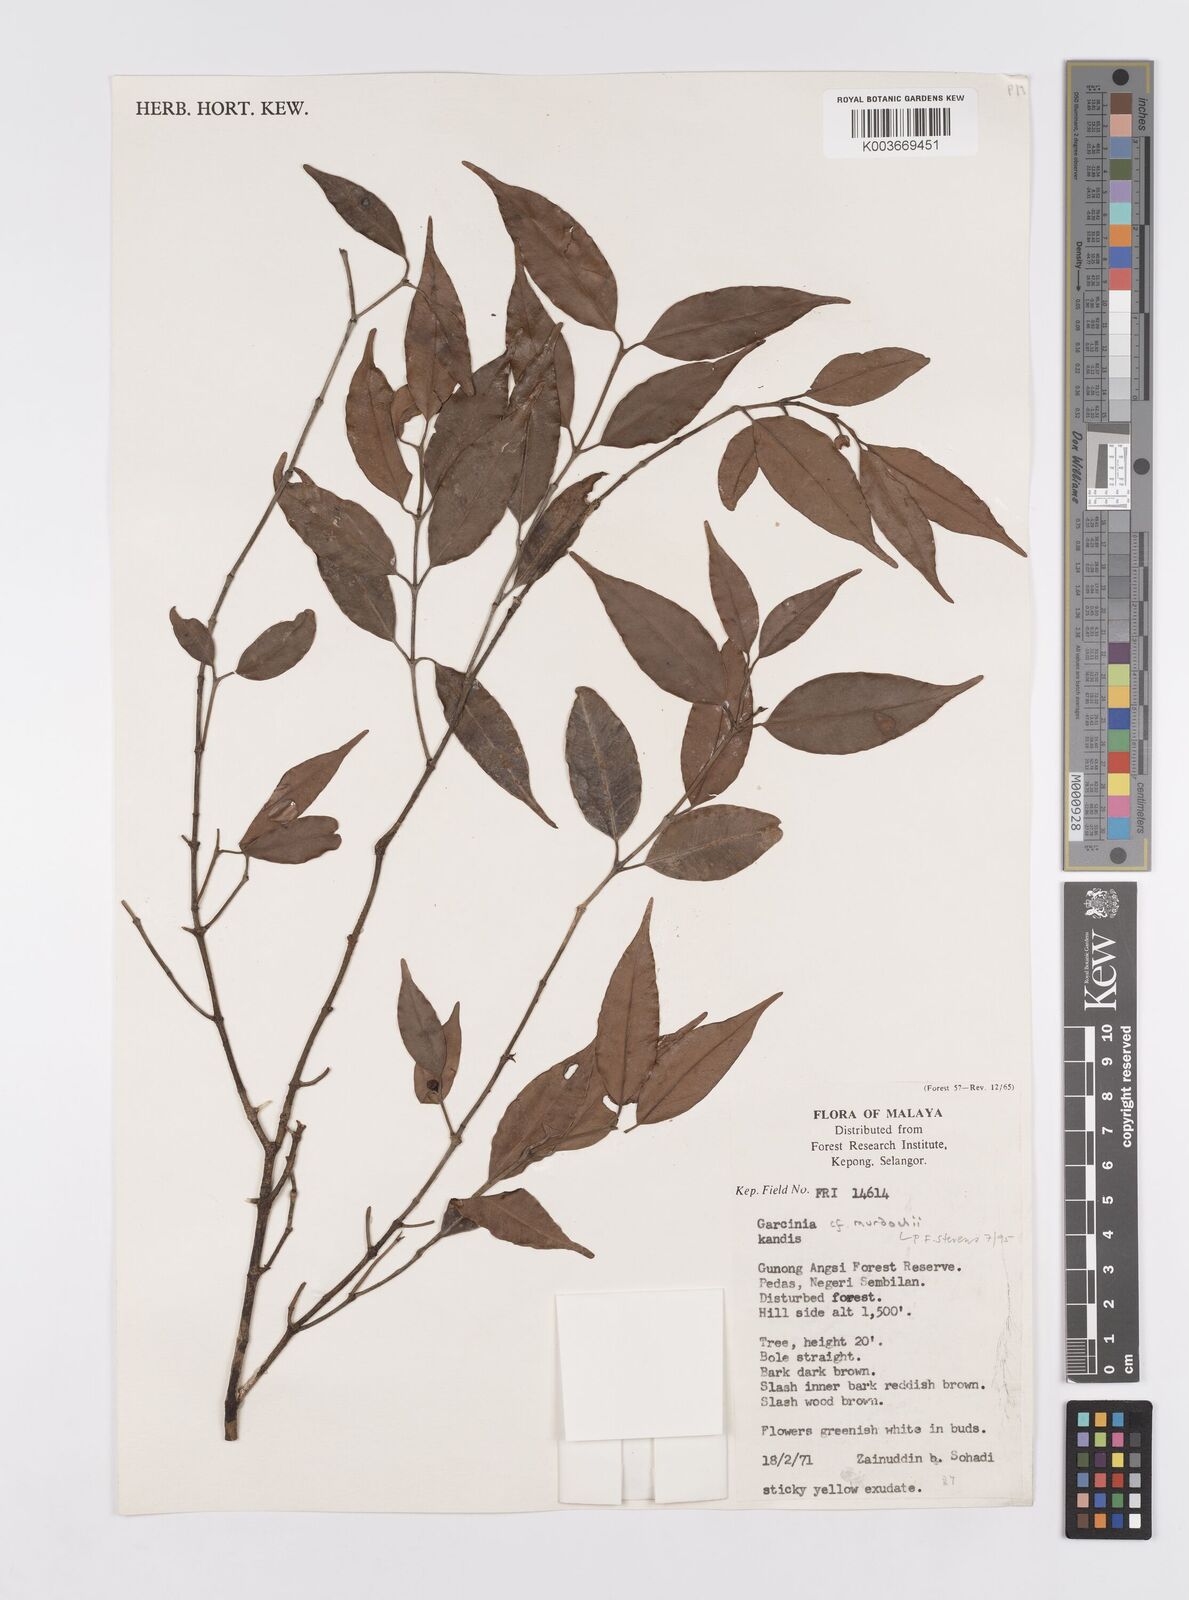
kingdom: Plantae
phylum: Tracheophyta
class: Magnoliopsida
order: Malpighiales
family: Clusiaceae
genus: Garcinia
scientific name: Garcinia murdochii
